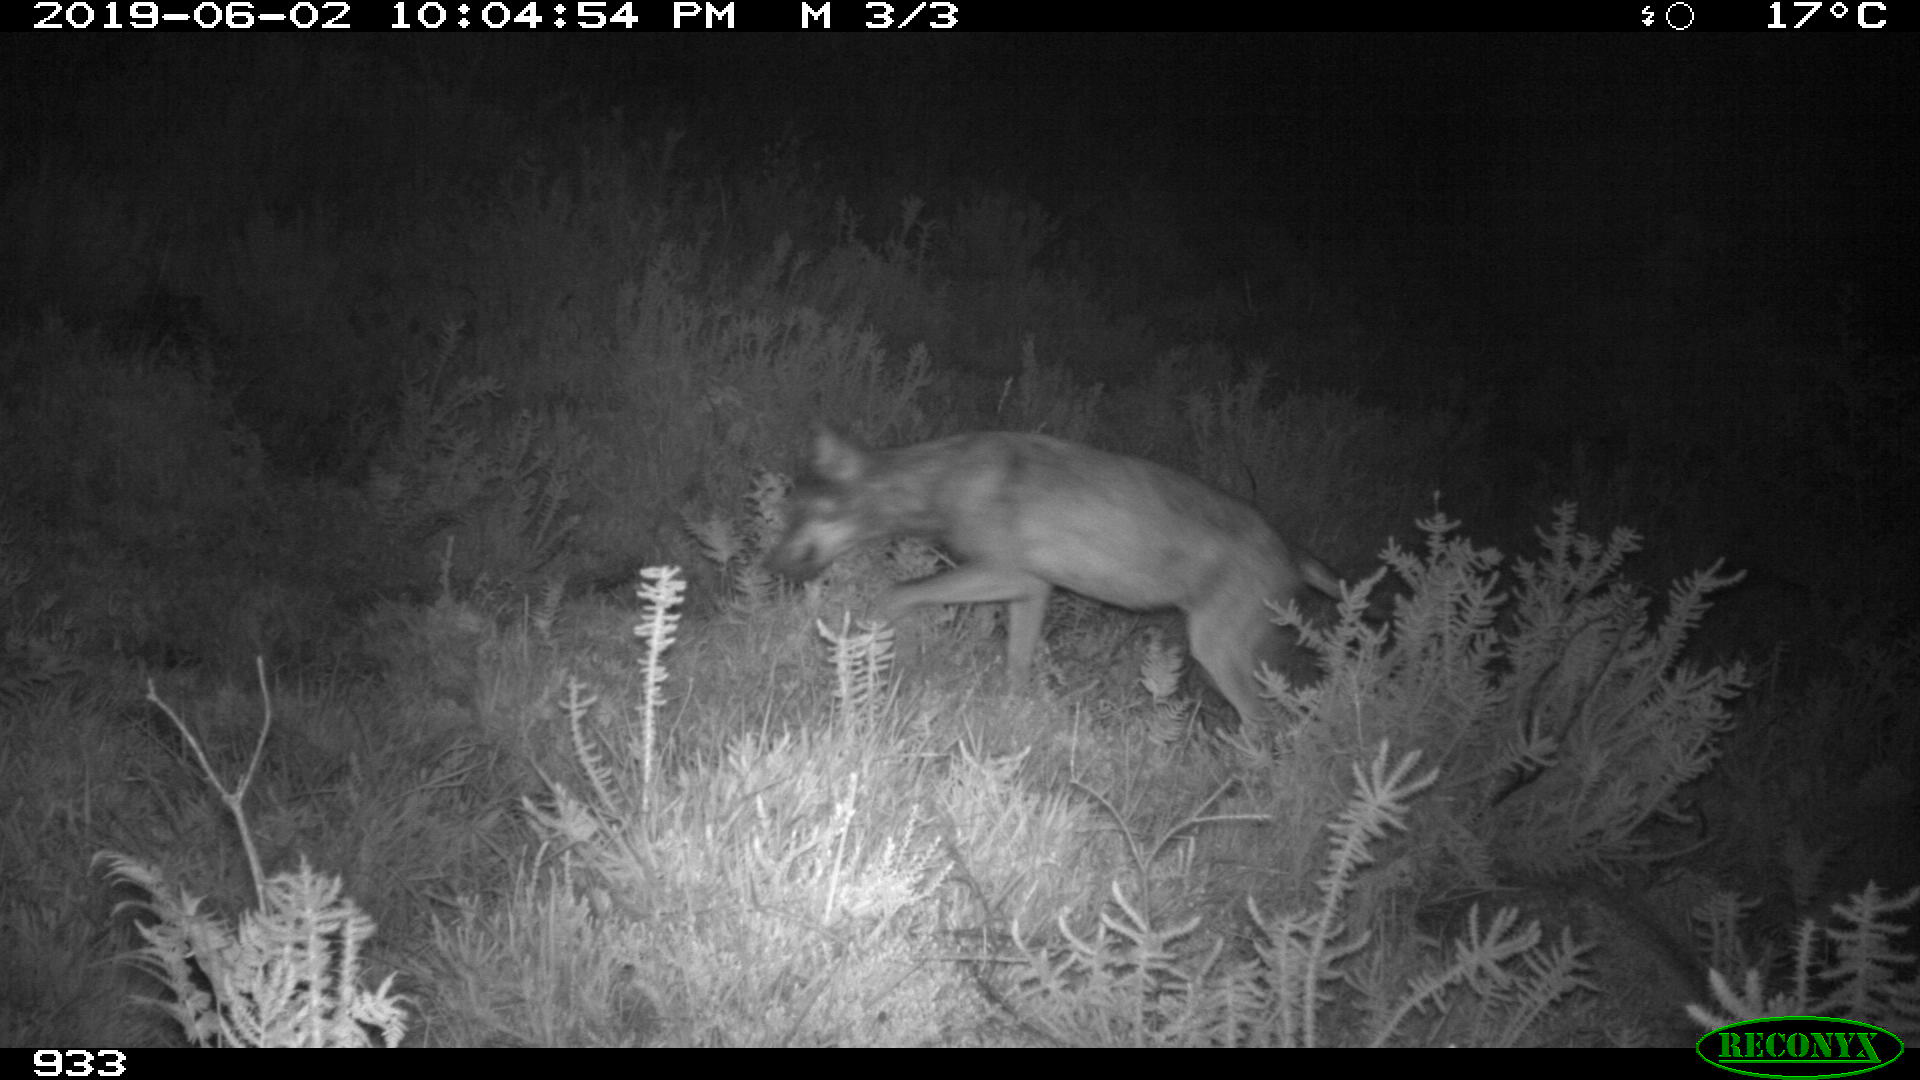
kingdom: Animalia
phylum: Chordata
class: Mammalia
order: Carnivora
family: Canidae
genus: Canis
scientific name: Canis lupus
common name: Gray wolf
